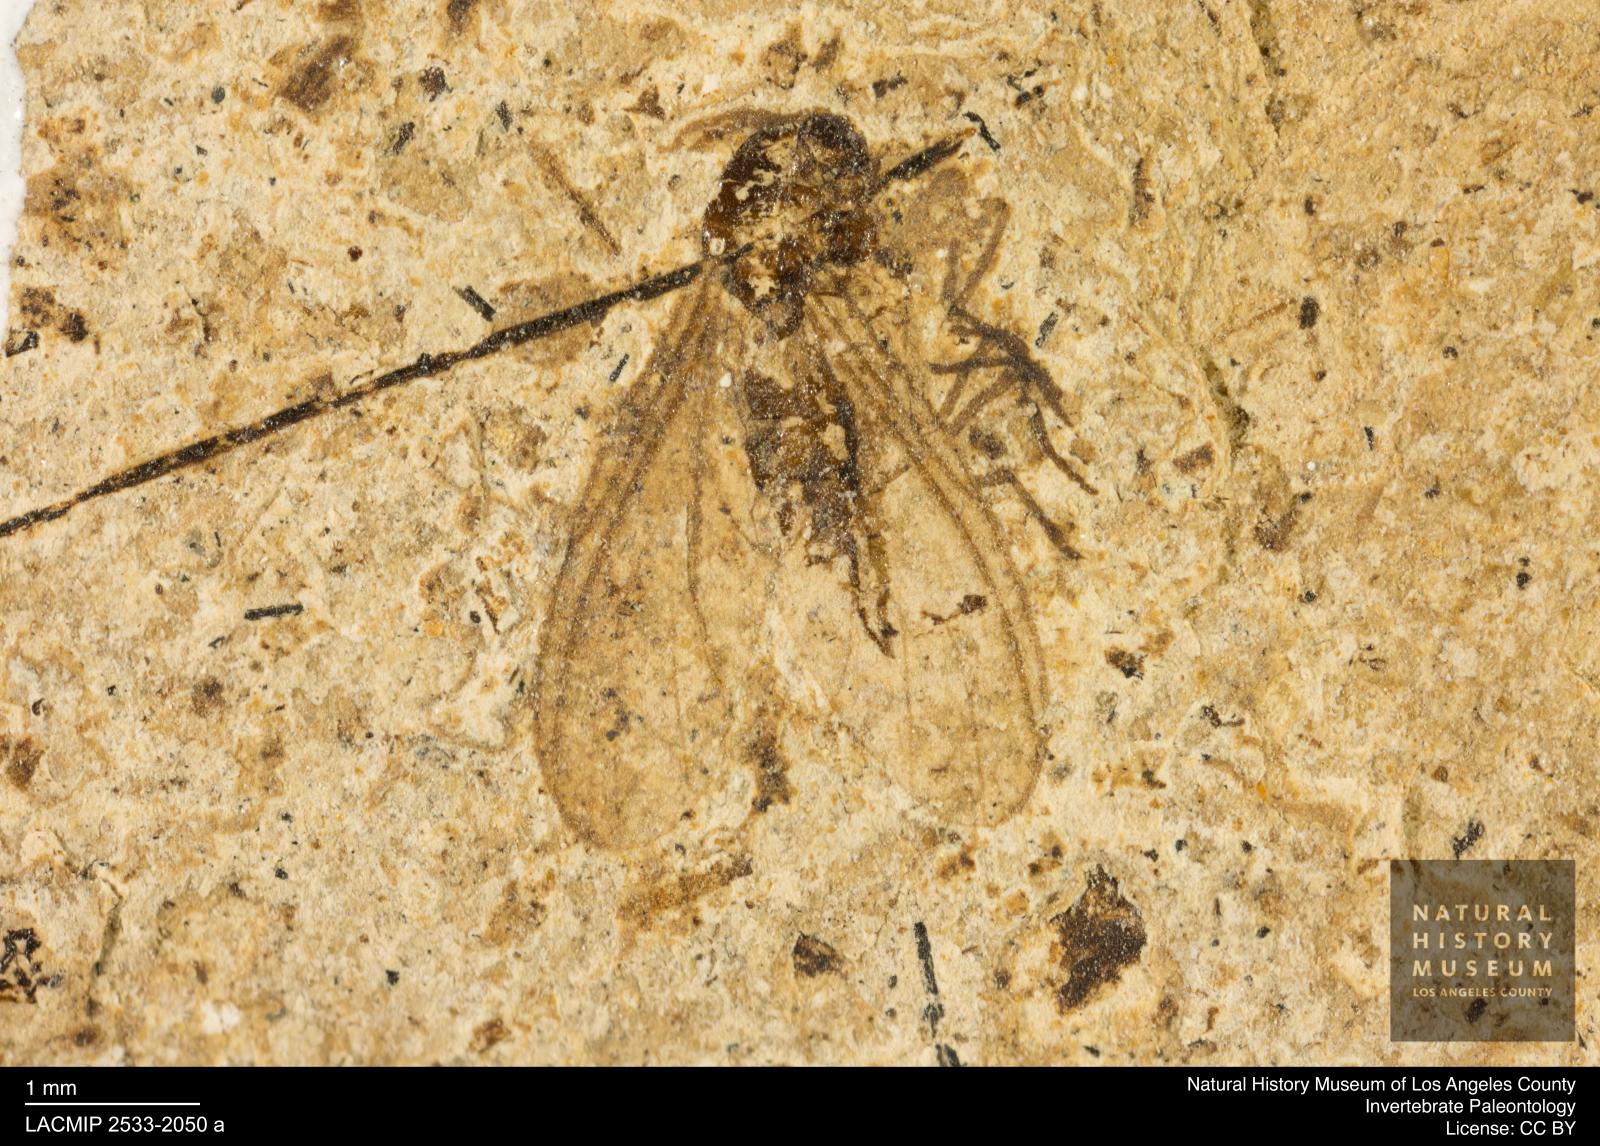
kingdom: Animalia
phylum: Arthropoda
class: Insecta
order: Diptera
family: Sciaridae
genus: Sciara
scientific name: Sciara winnertzii
